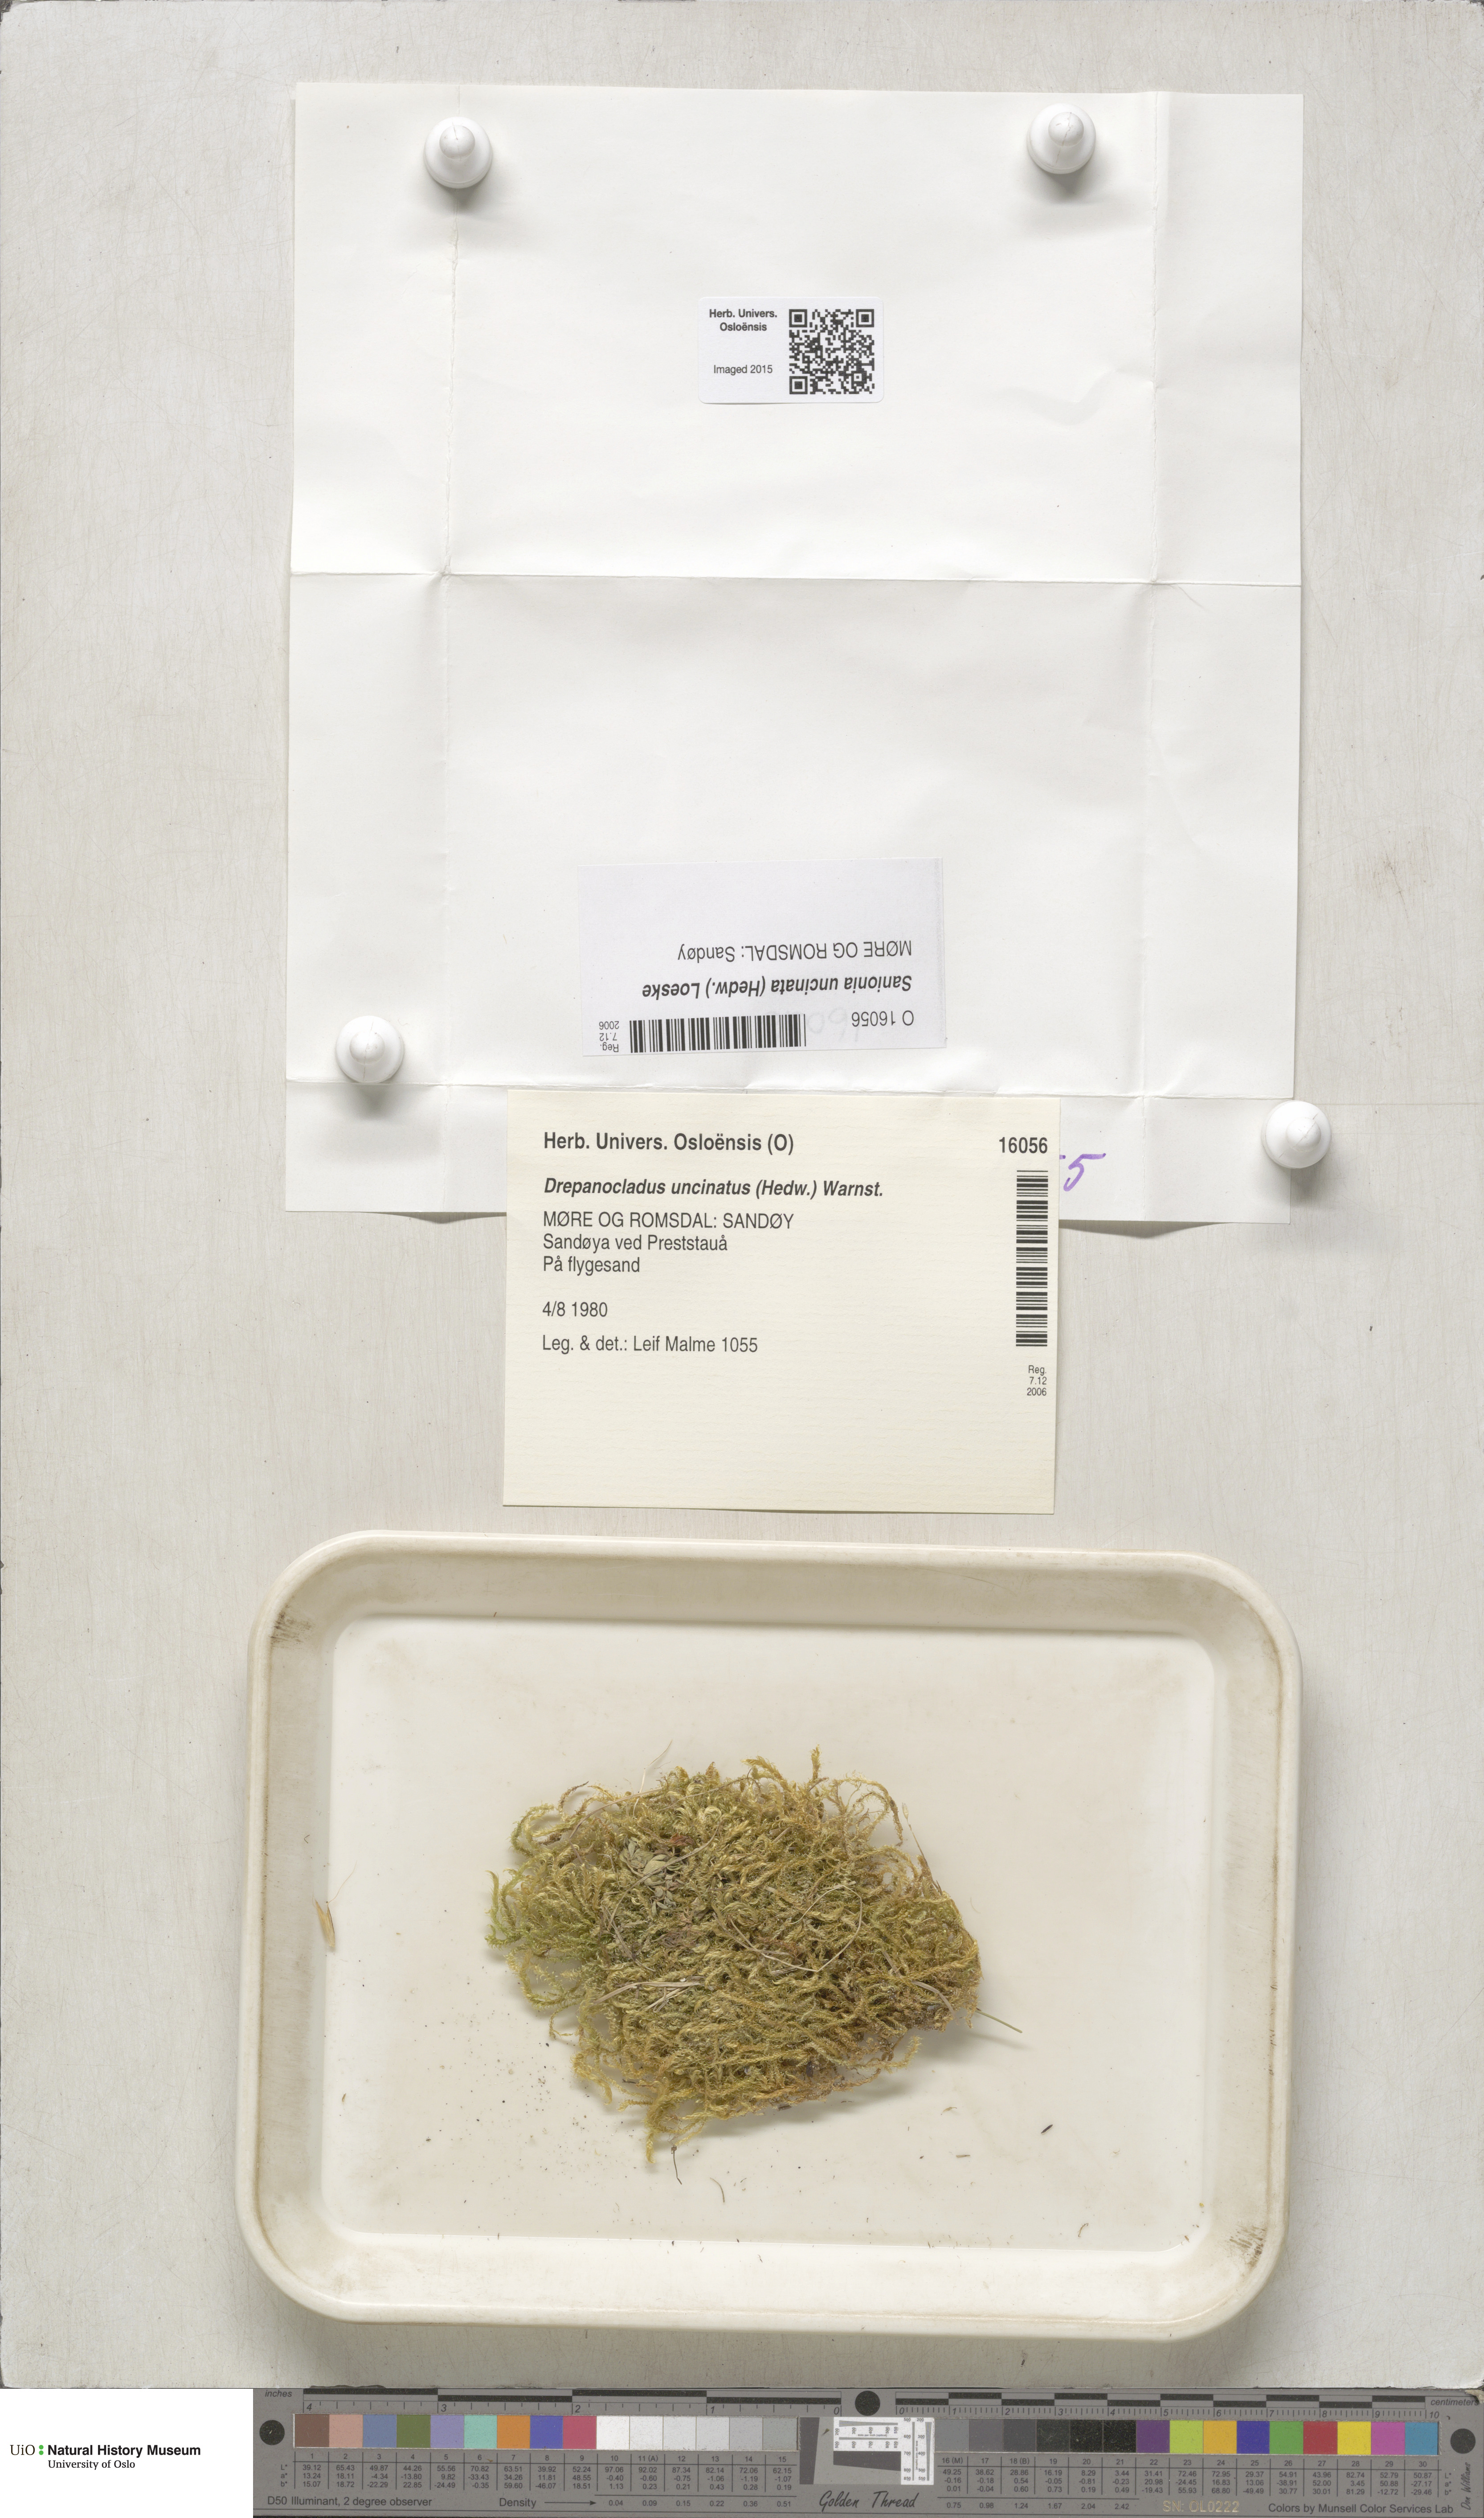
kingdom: Plantae
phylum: Bryophyta
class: Bryopsida
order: Hypnales
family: Scorpidiaceae
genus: Sanionia
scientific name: Sanionia uncinata
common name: Sickle moss
